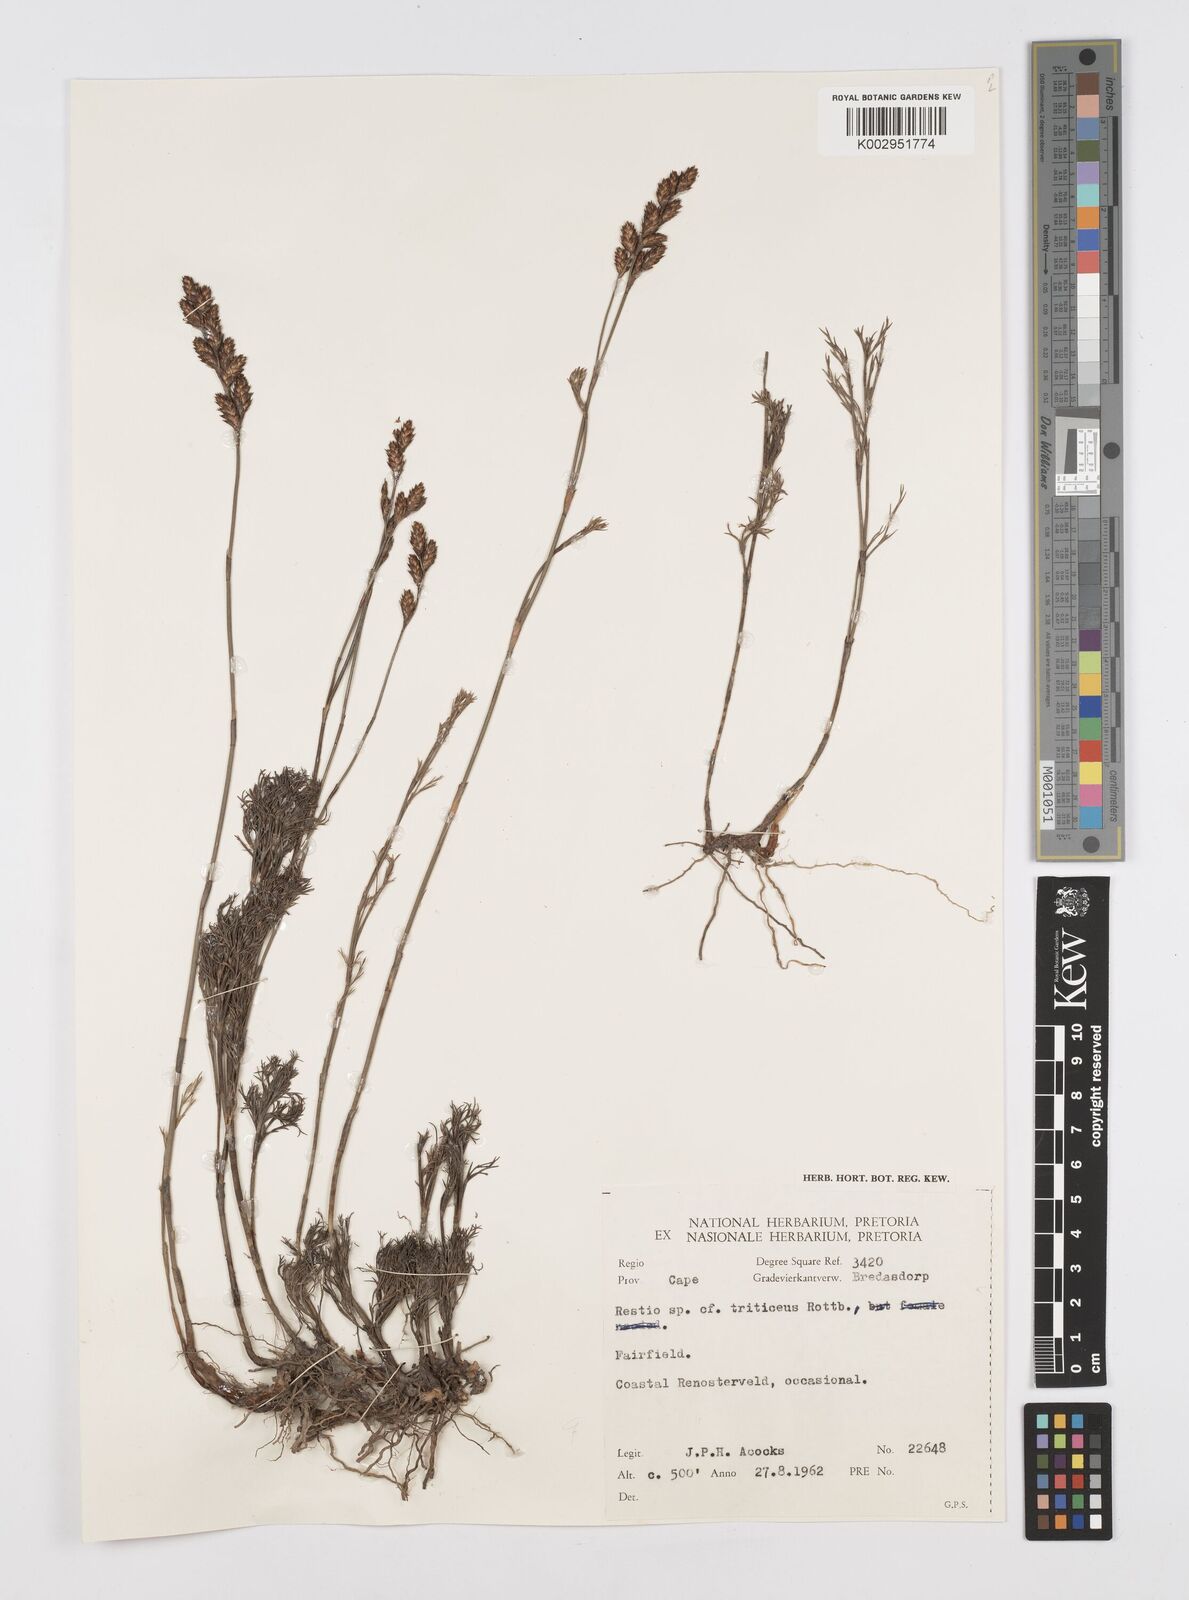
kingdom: Plantae
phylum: Tracheophyta
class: Liliopsida
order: Poales
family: Restionaceae
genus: Restio
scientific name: Restio triticeus
